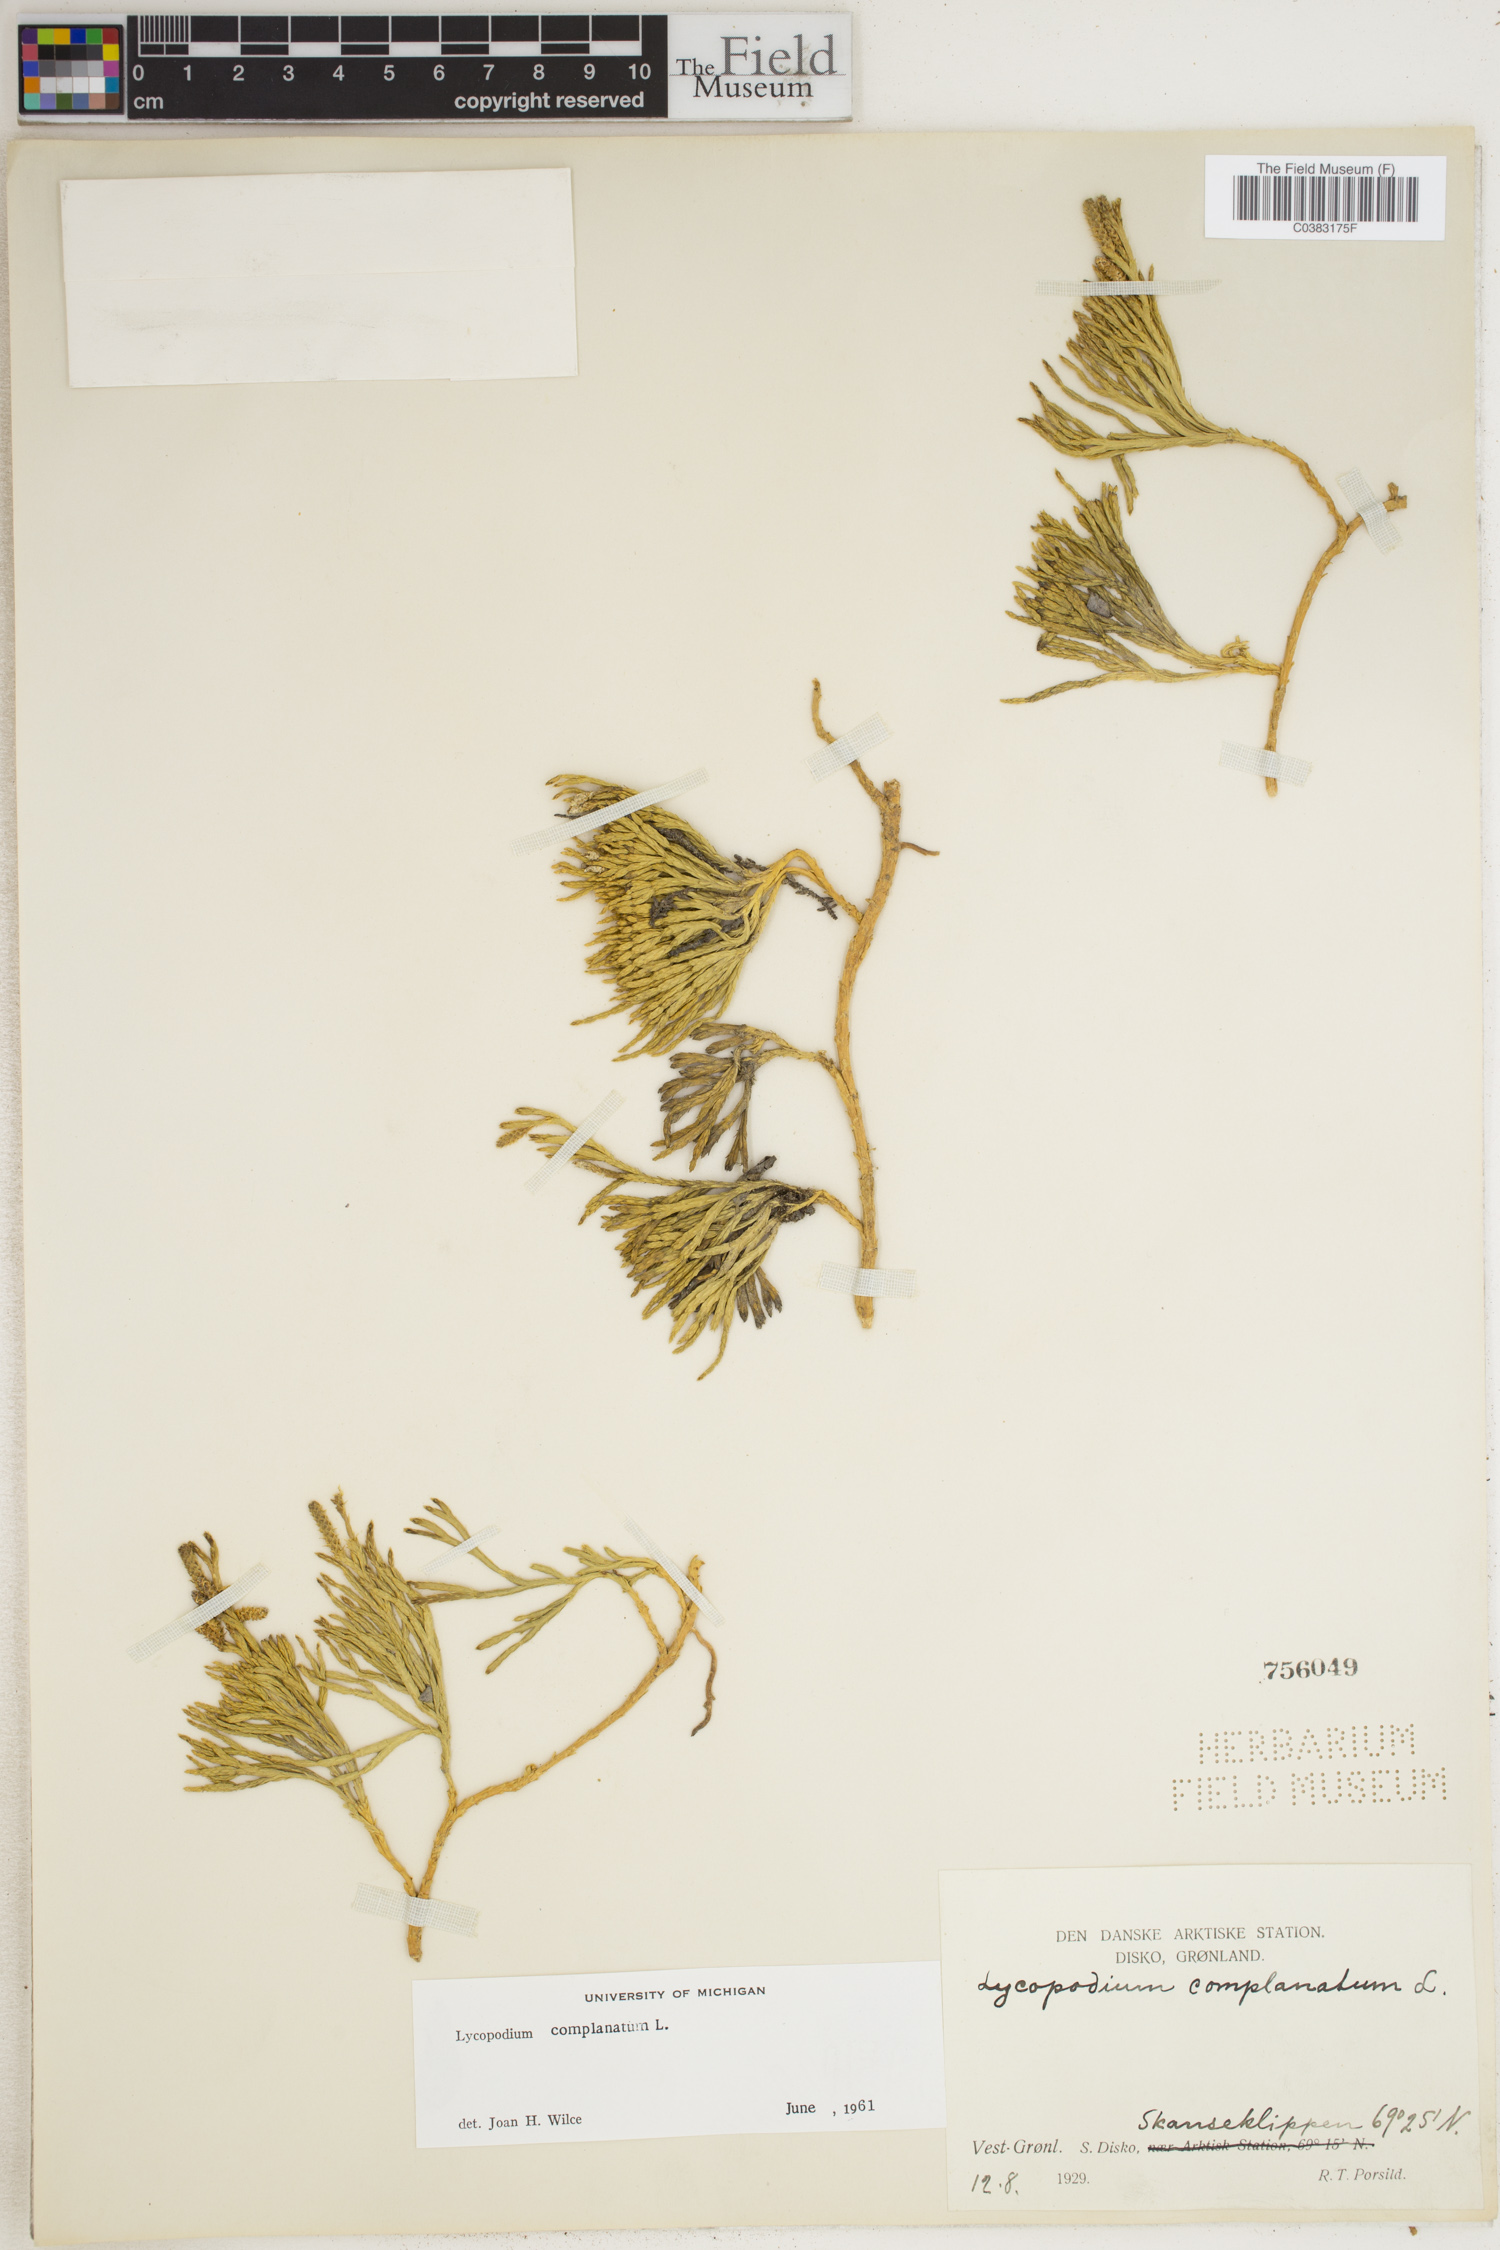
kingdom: Plantae
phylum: Tracheophyta
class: Lycopodiopsida
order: Lycopodiales
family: Lycopodiaceae
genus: Diphasiastrum
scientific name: Diphasiastrum complanatum
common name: Northern running-pine
